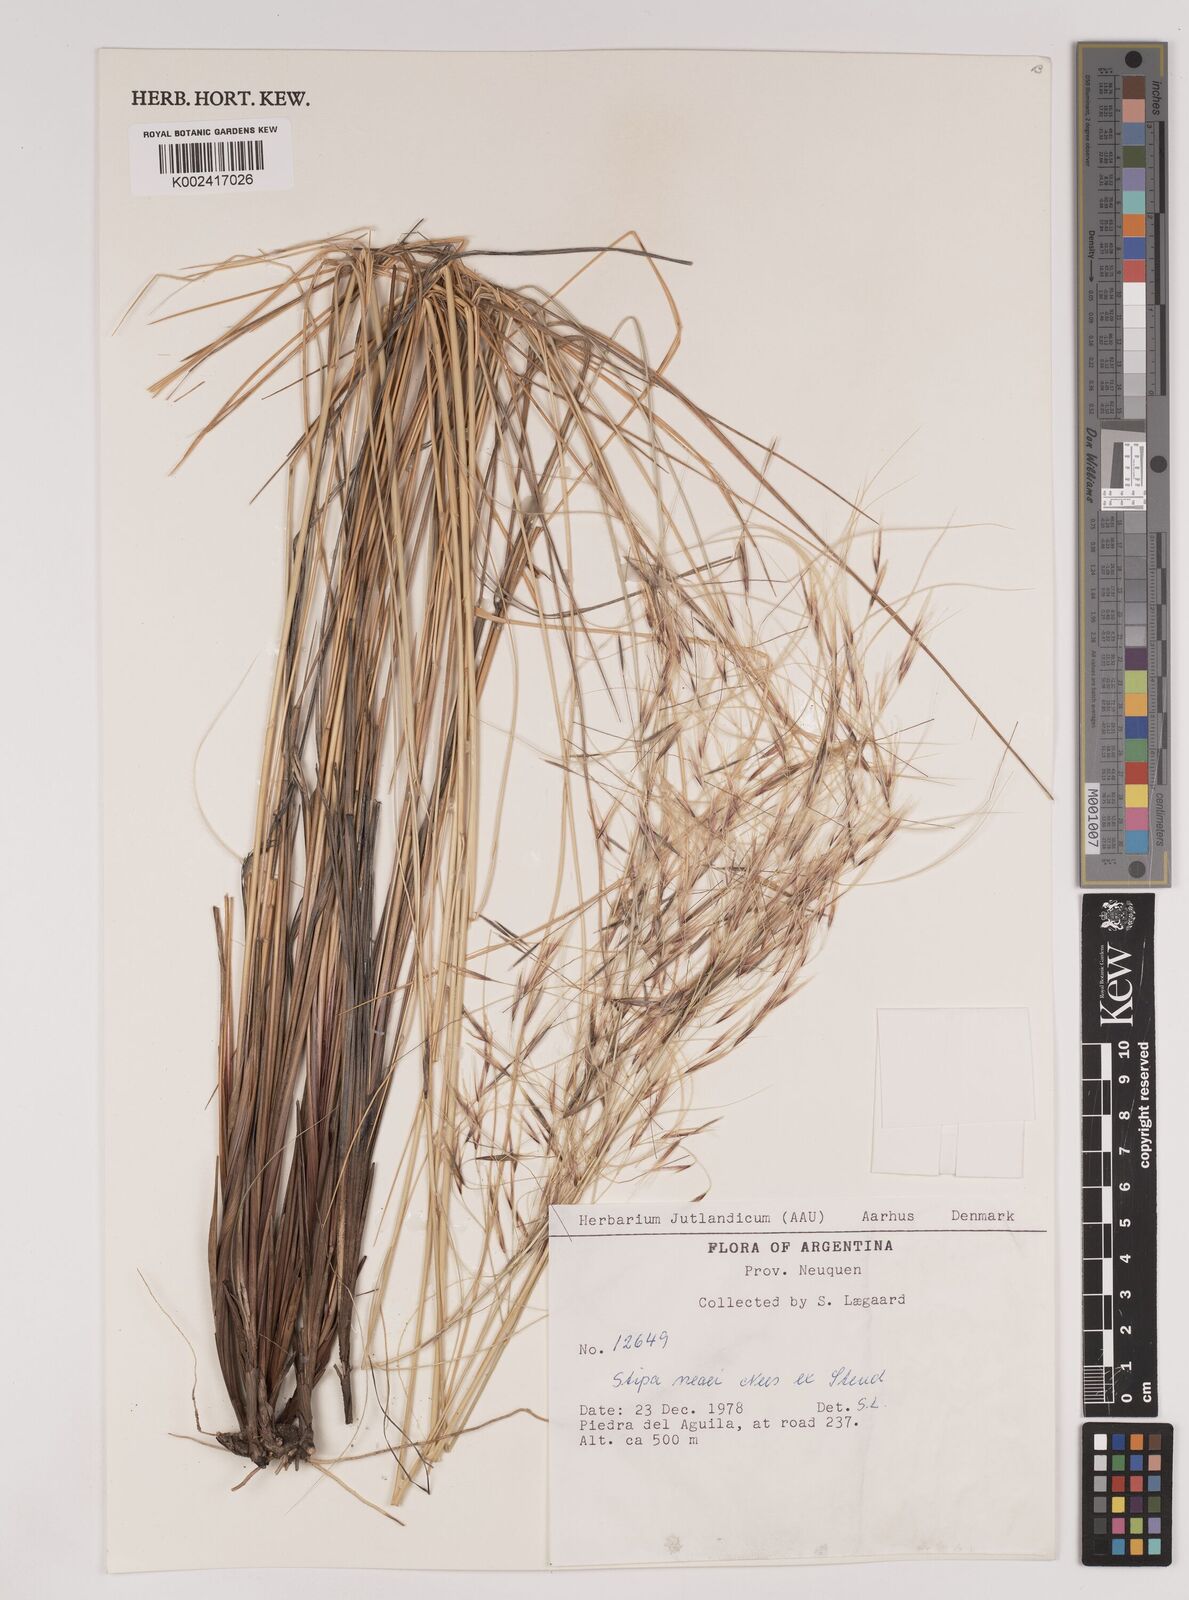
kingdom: Plantae
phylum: Tracheophyta
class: Liliopsida
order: Poales
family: Poaceae
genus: Stipa
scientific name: Stipa neaei
